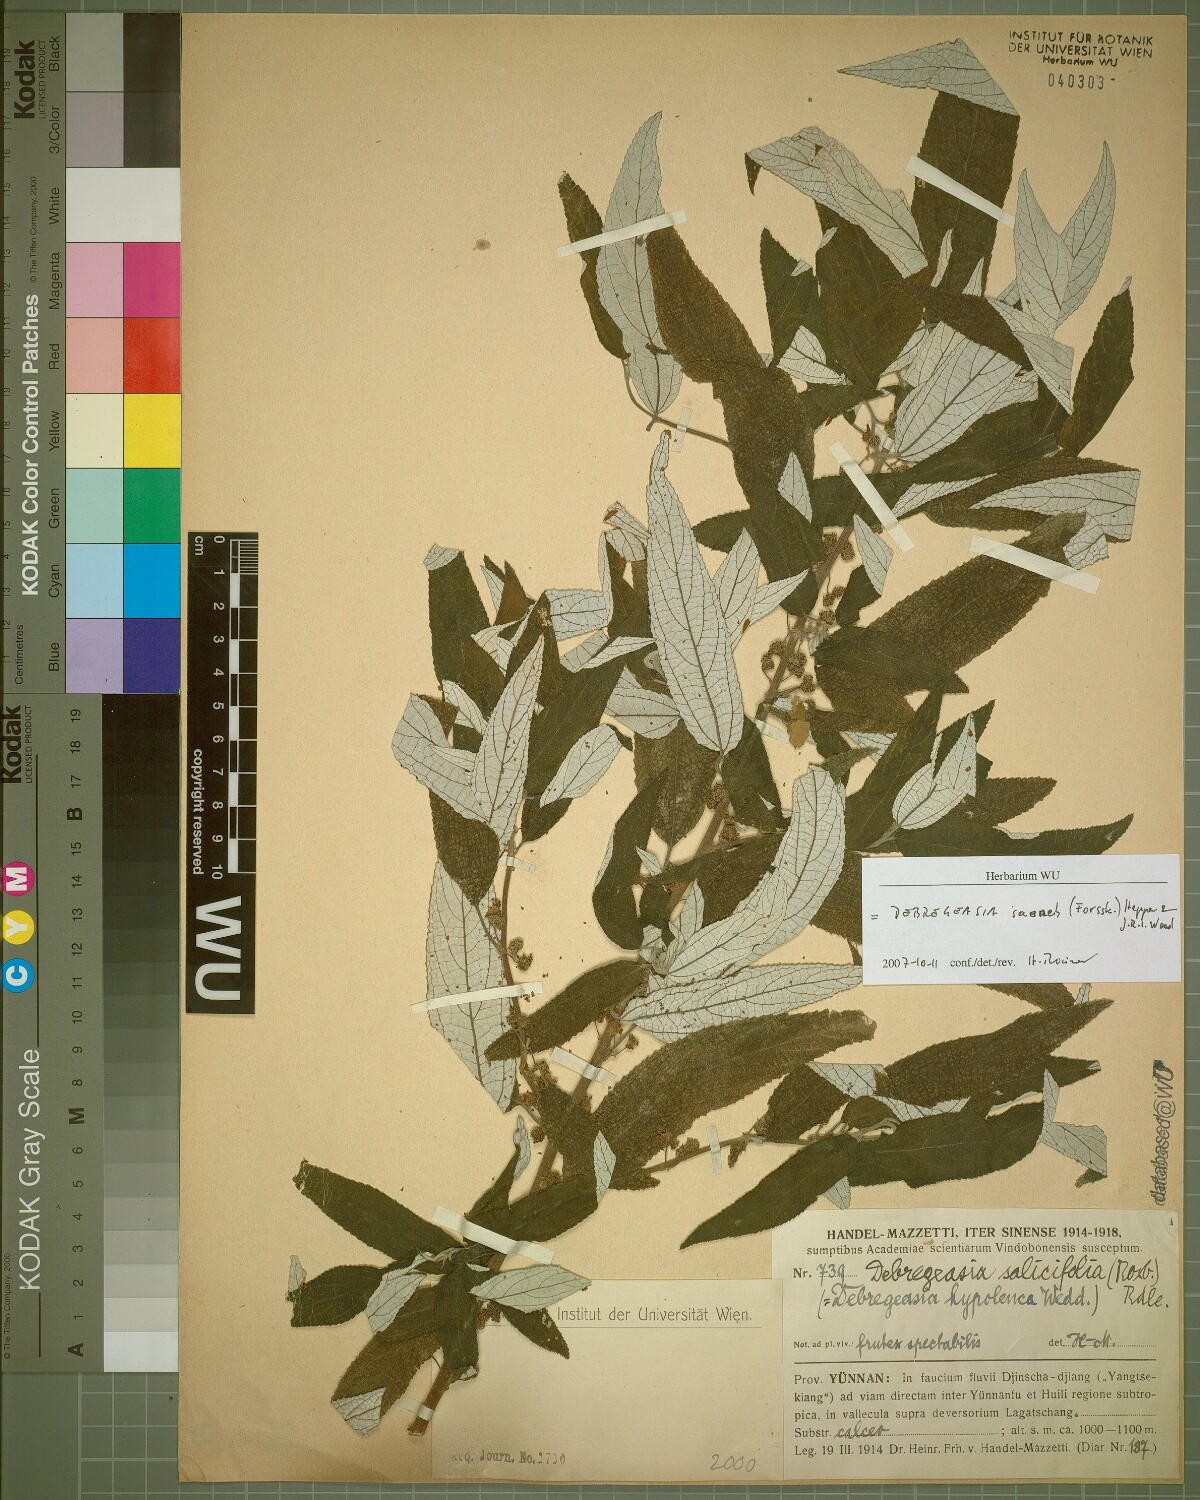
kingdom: Plantae
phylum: Tracheophyta
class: Magnoliopsida
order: Rosales
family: Urticaceae
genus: Debregeasia
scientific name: Debregeasia saeneb
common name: Himalayan wild rhea
